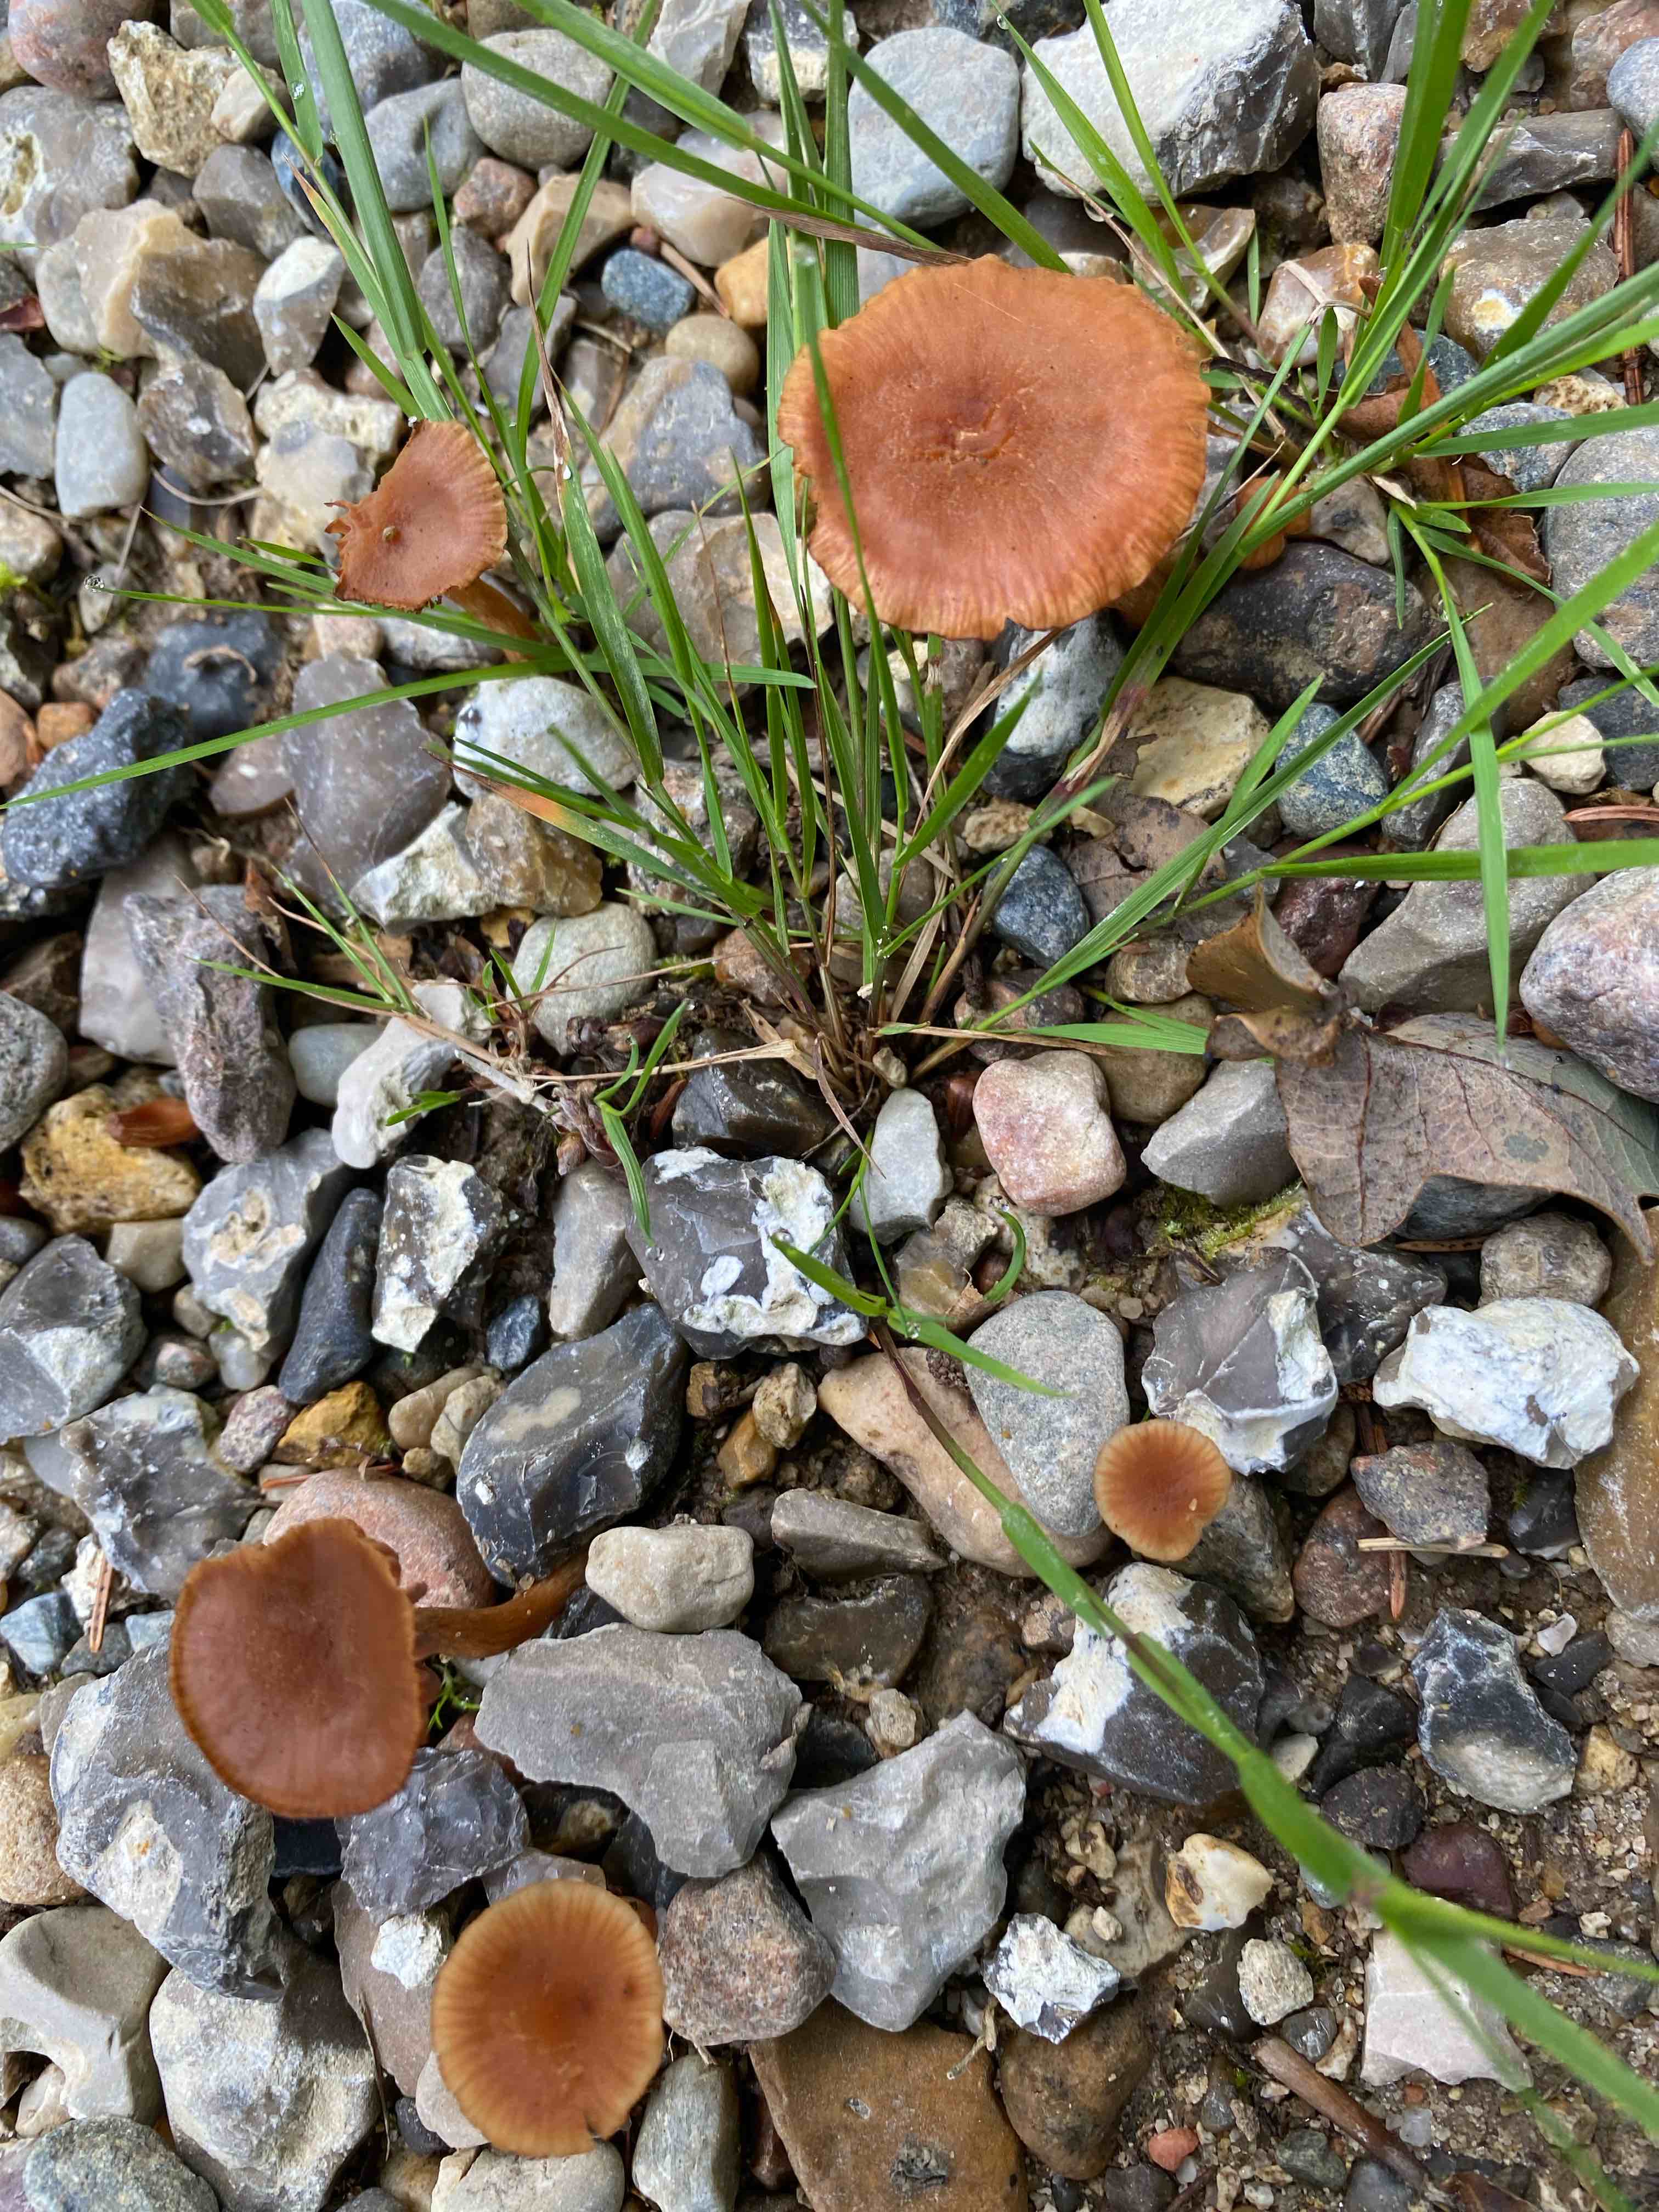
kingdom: Fungi
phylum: Basidiomycota
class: Agaricomycetes
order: Agaricales
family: Hydnangiaceae
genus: Laccaria
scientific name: Laccaria laccata
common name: rød ametysthat
